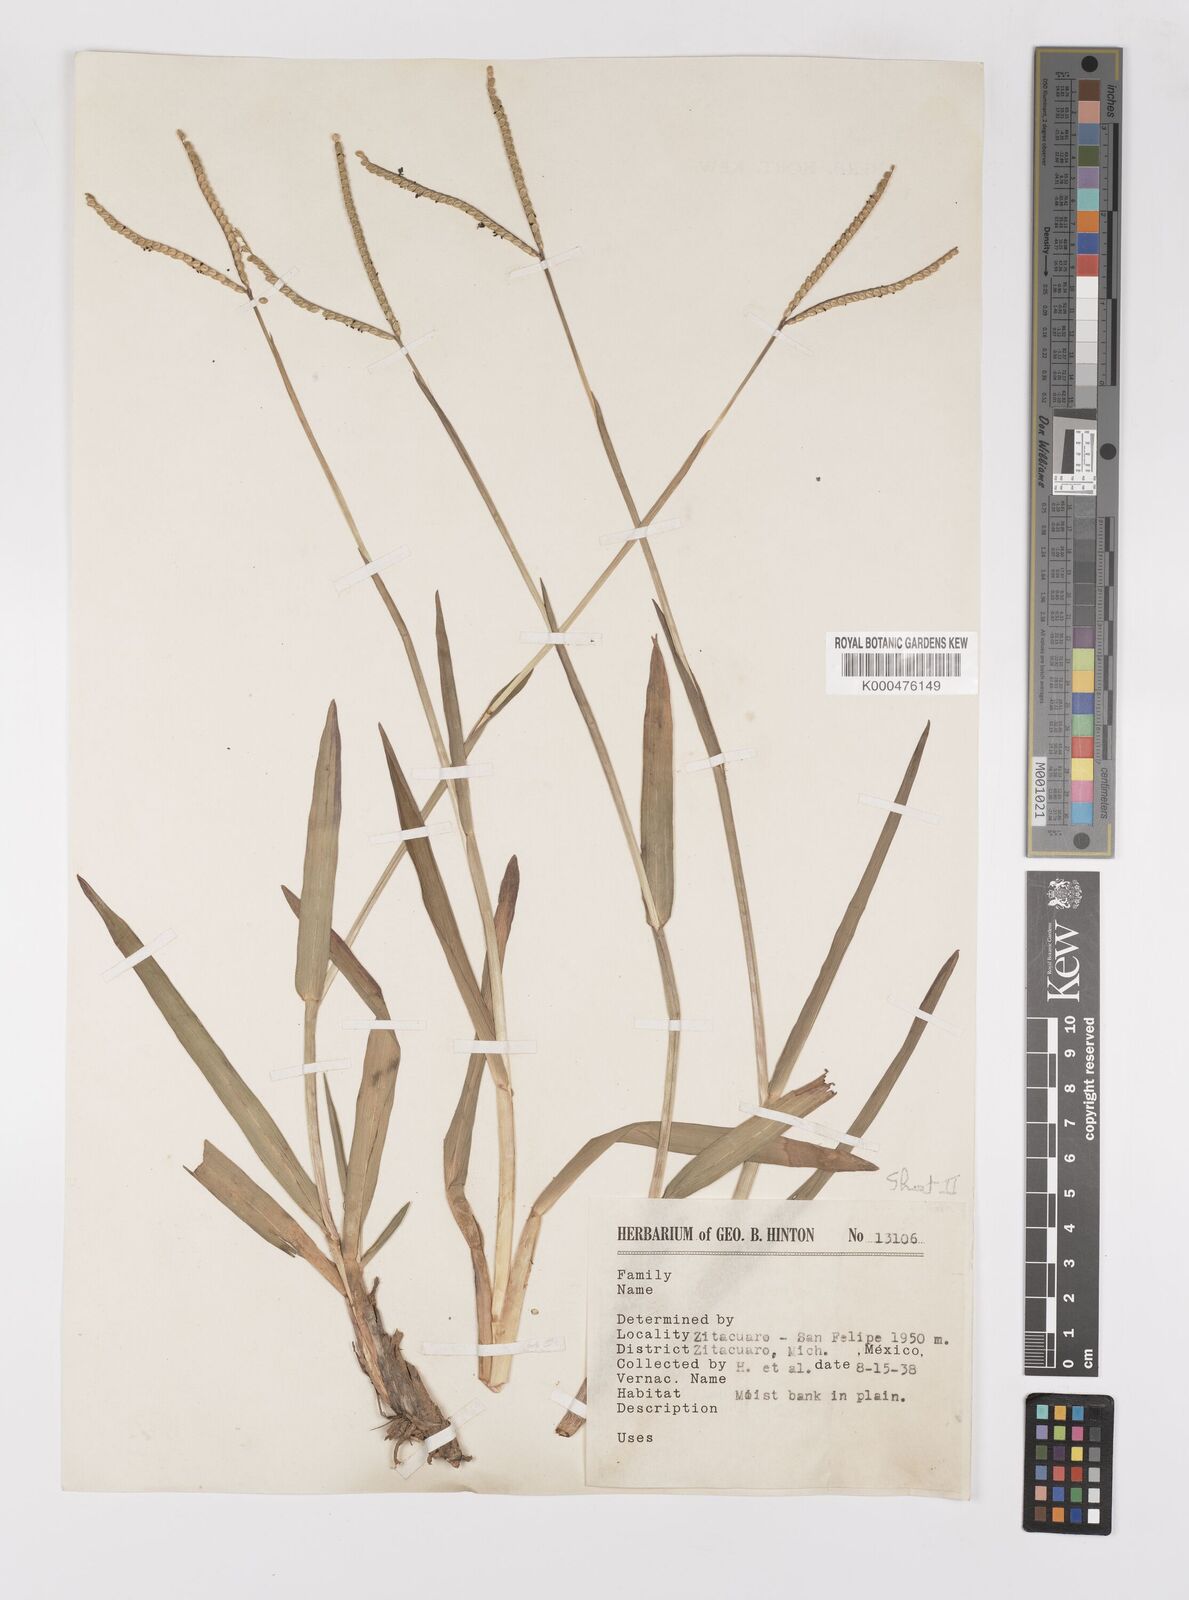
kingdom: Plantae
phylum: Tracheophyta
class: Liliopsida
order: Poales
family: Poaceae
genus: Paspalum
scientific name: Paspalum
